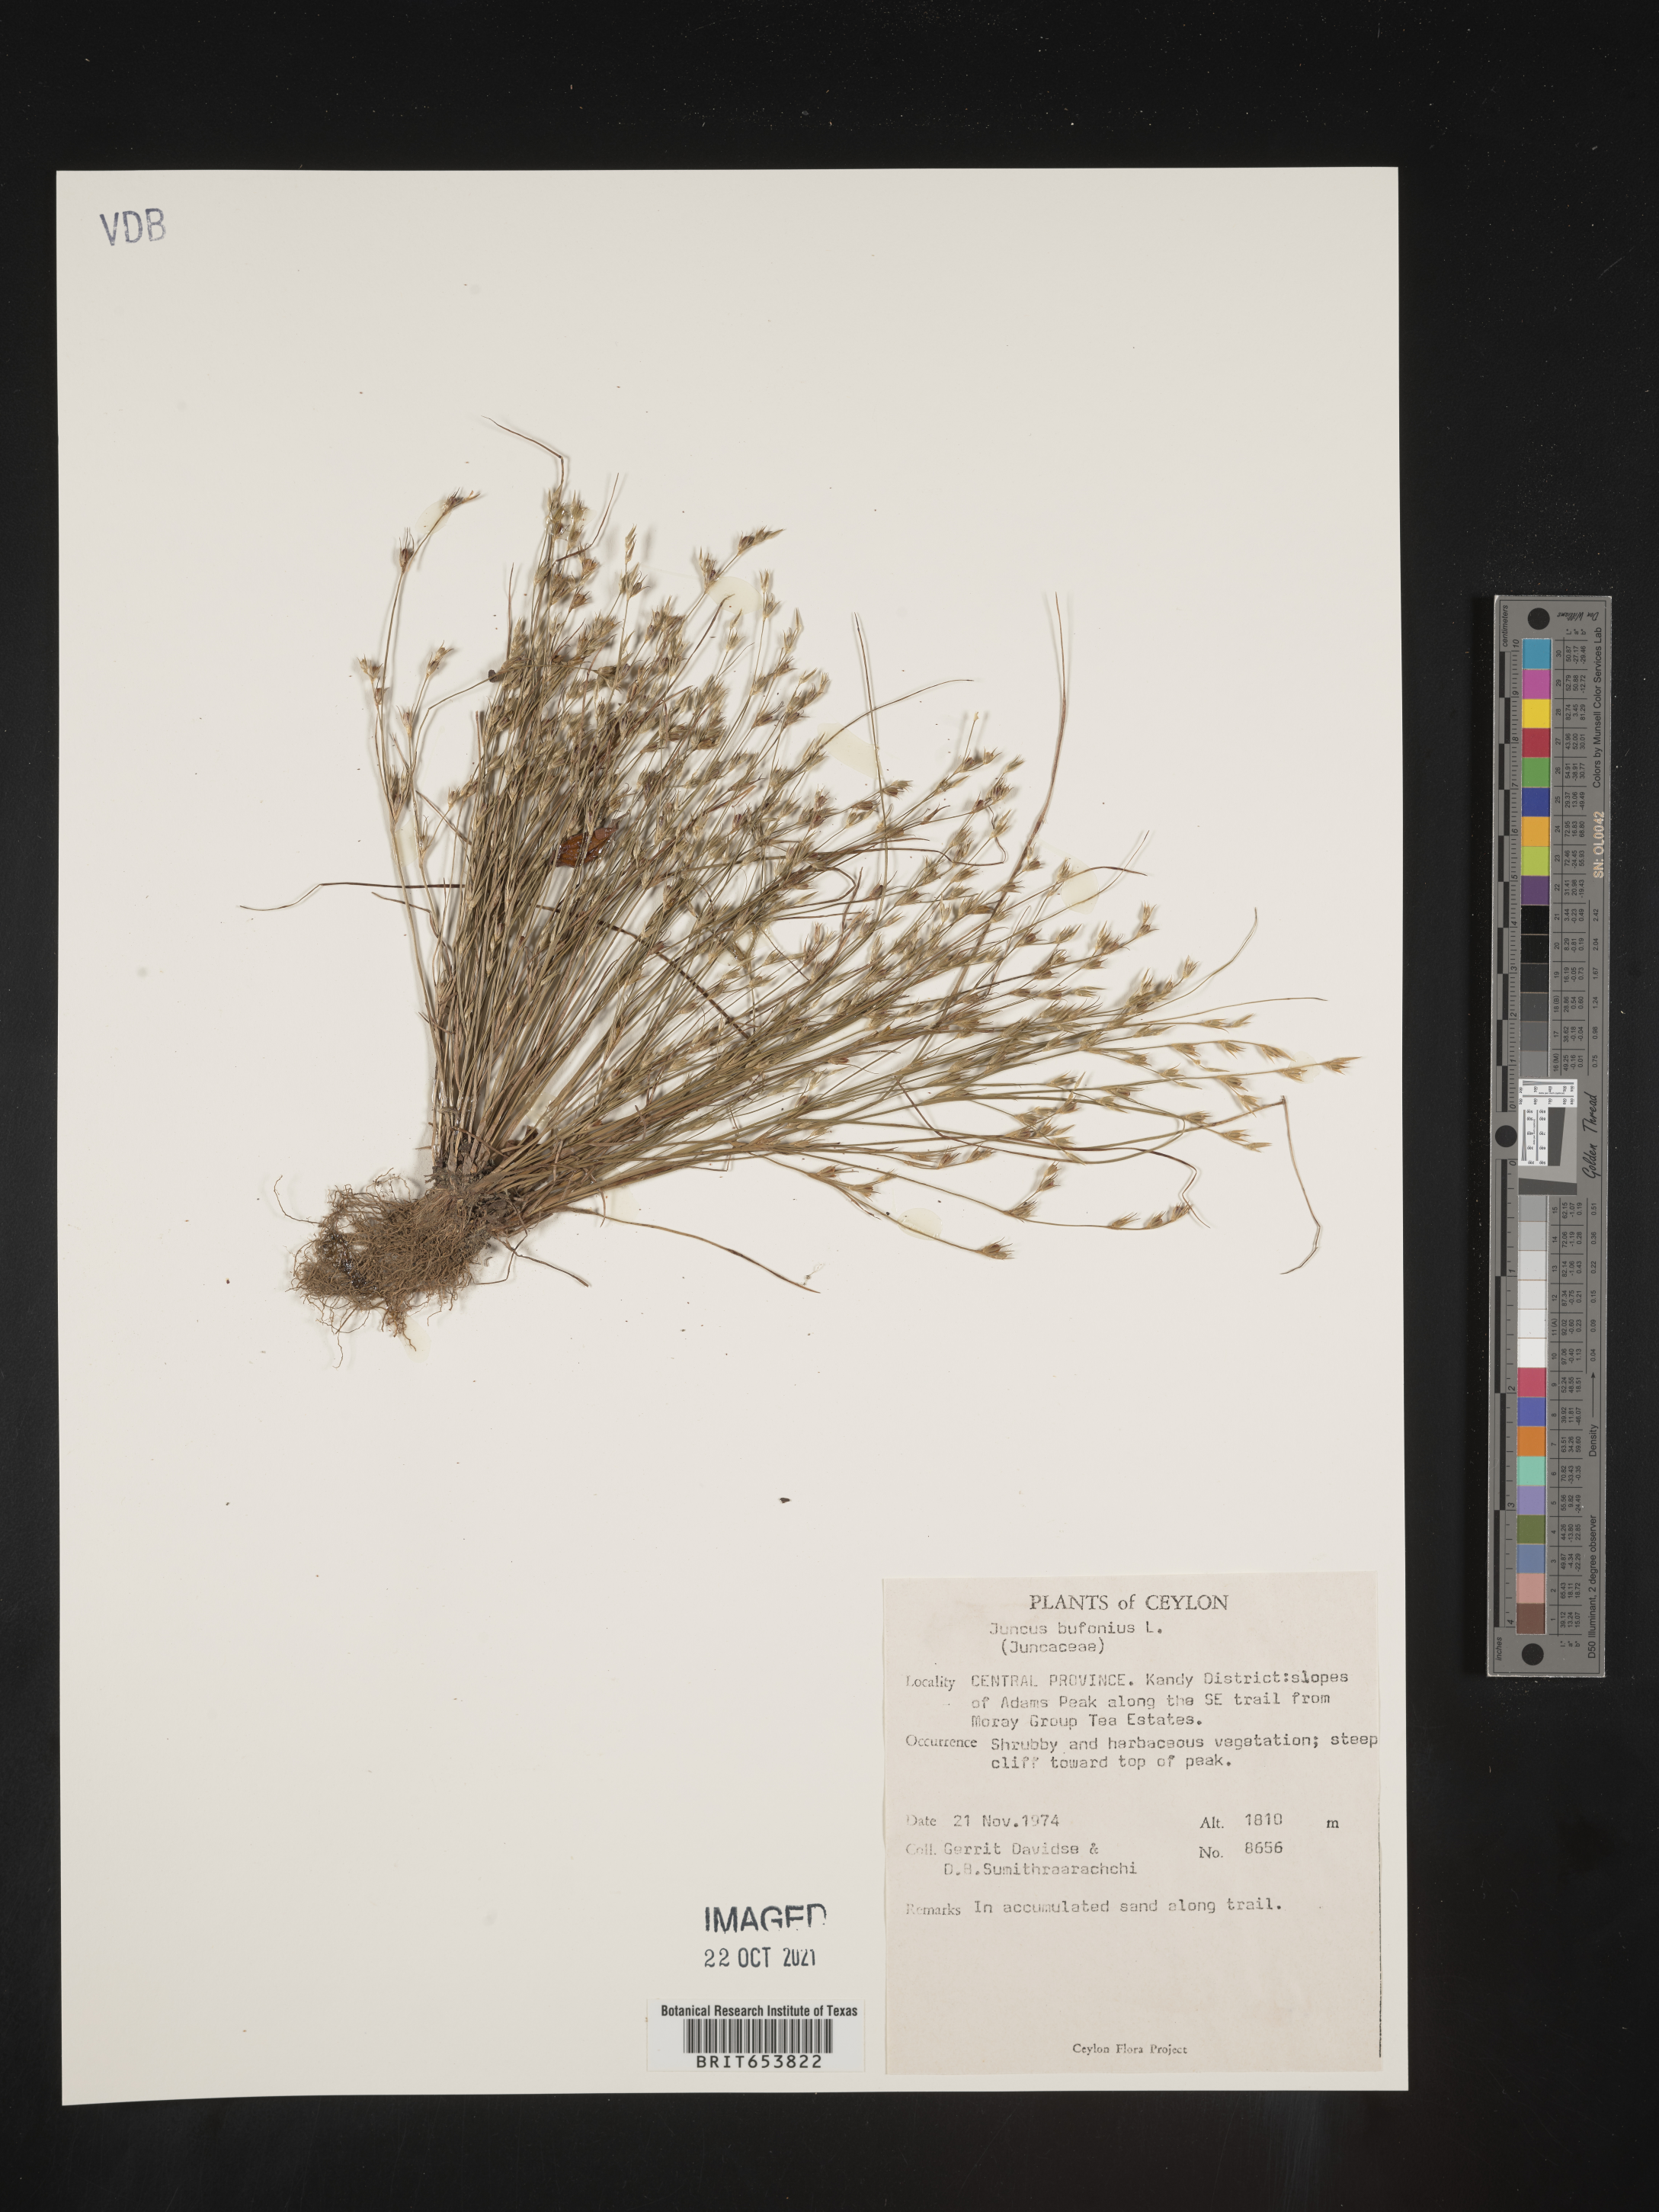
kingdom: Plantae
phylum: Tracheophyta
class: Liliopsida
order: Poales
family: Juncaceae
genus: Juncus
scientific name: Juncus bufonius
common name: Toad rush
